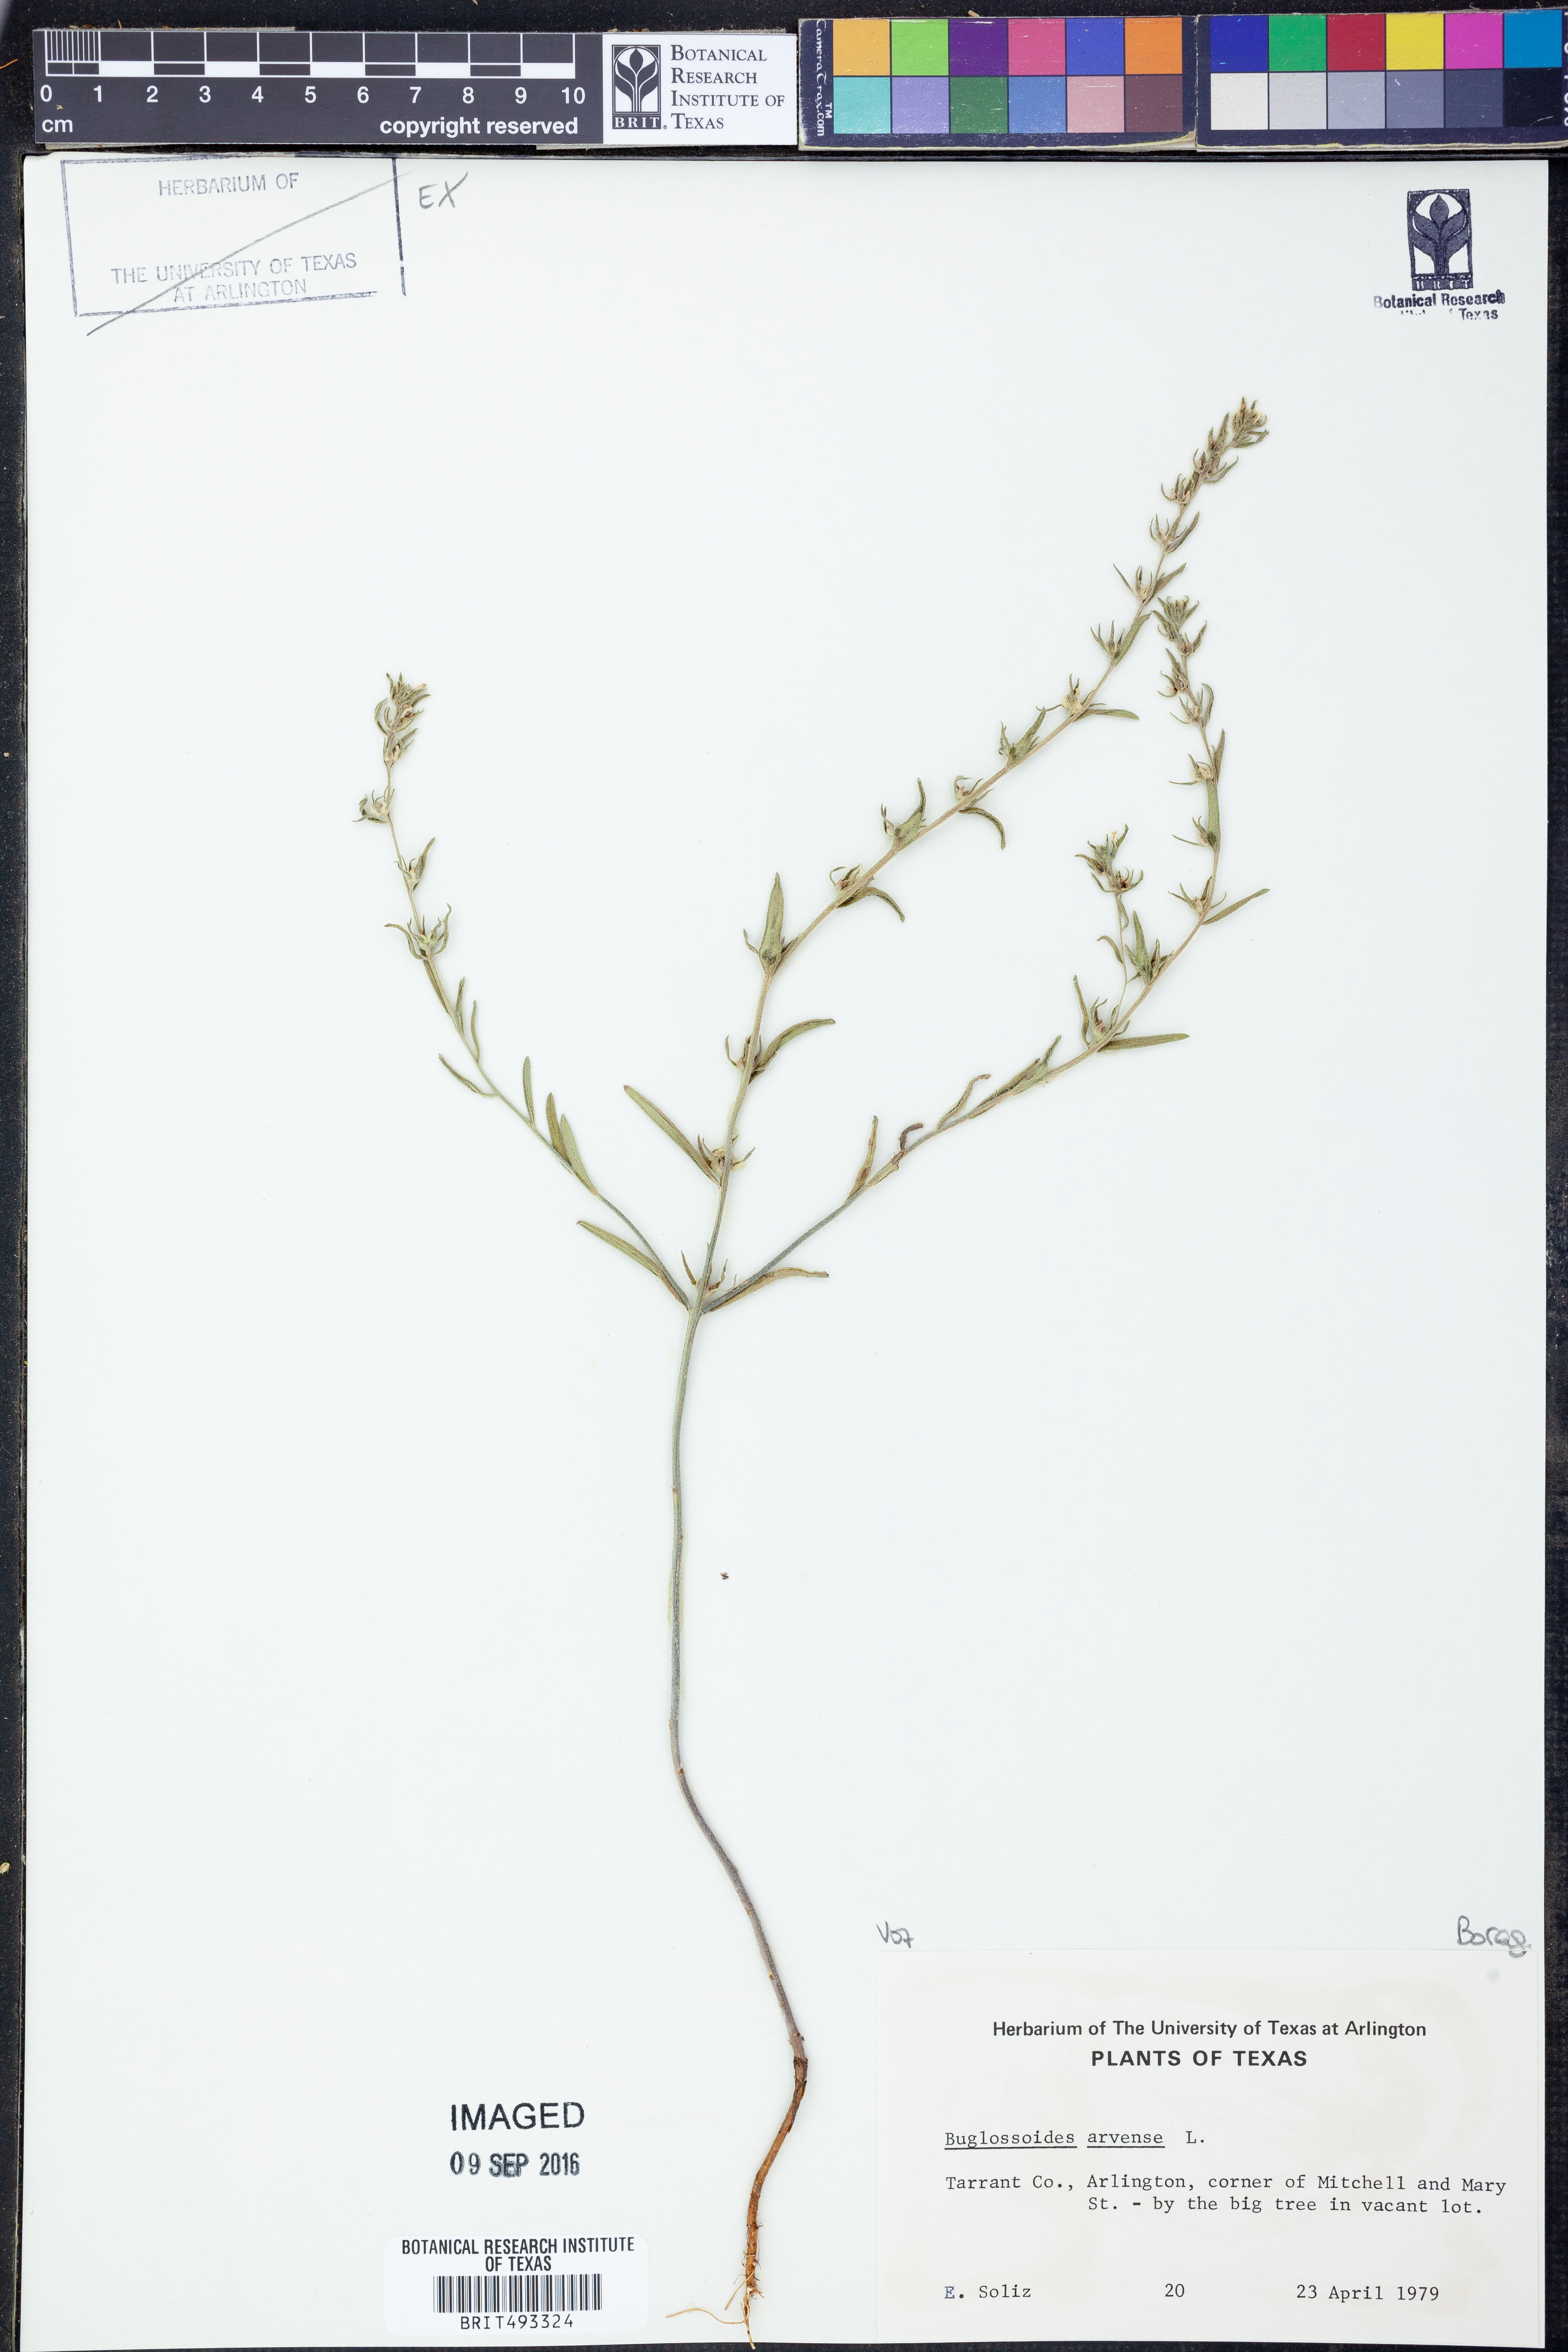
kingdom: Plantae
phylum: Tracheophyta
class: Magnoliopsida
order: Boraginales
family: Boraginaceae
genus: Buglossoides
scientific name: Buglossoides arvensis
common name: Corn gromwell
